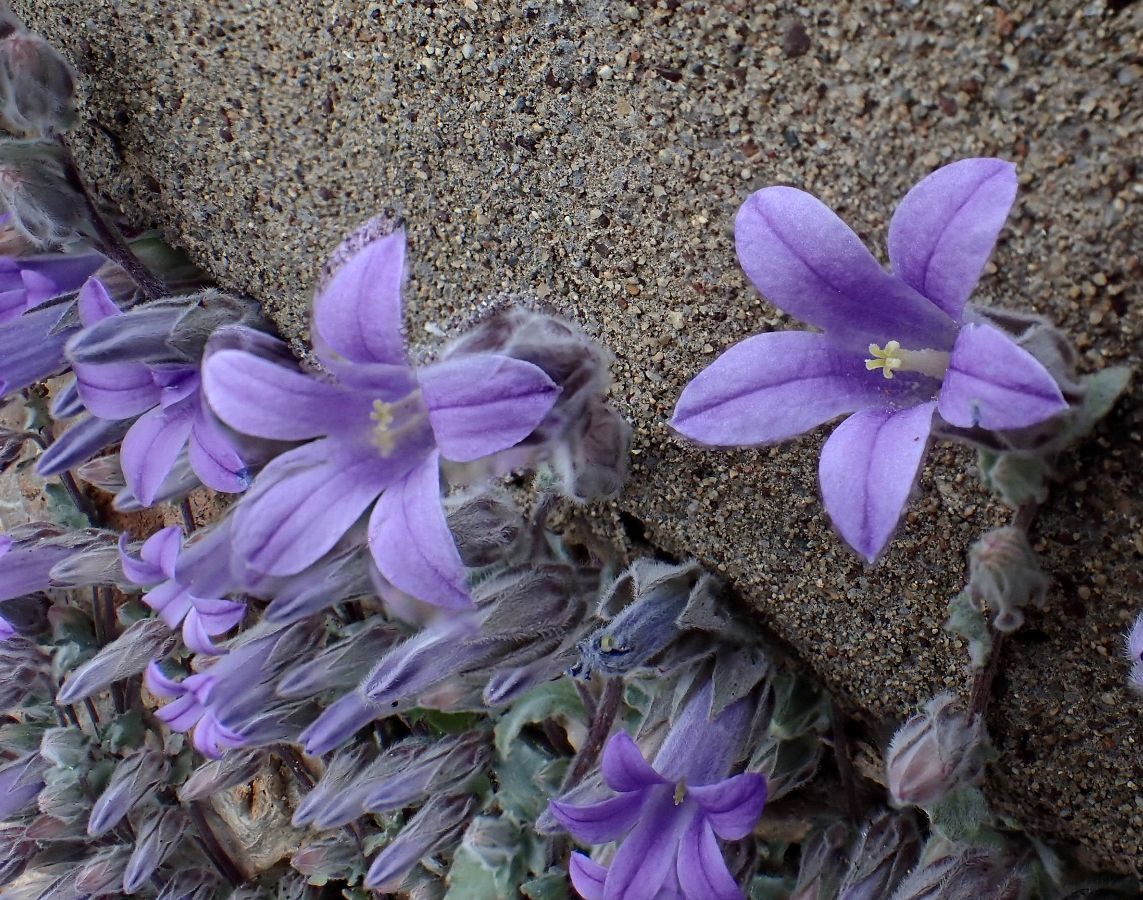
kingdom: Plantae
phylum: Tracheophyta
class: Magnoliopsida
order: Asterales
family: Campanulaceae
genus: Campanula
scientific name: Campanula topaliana
